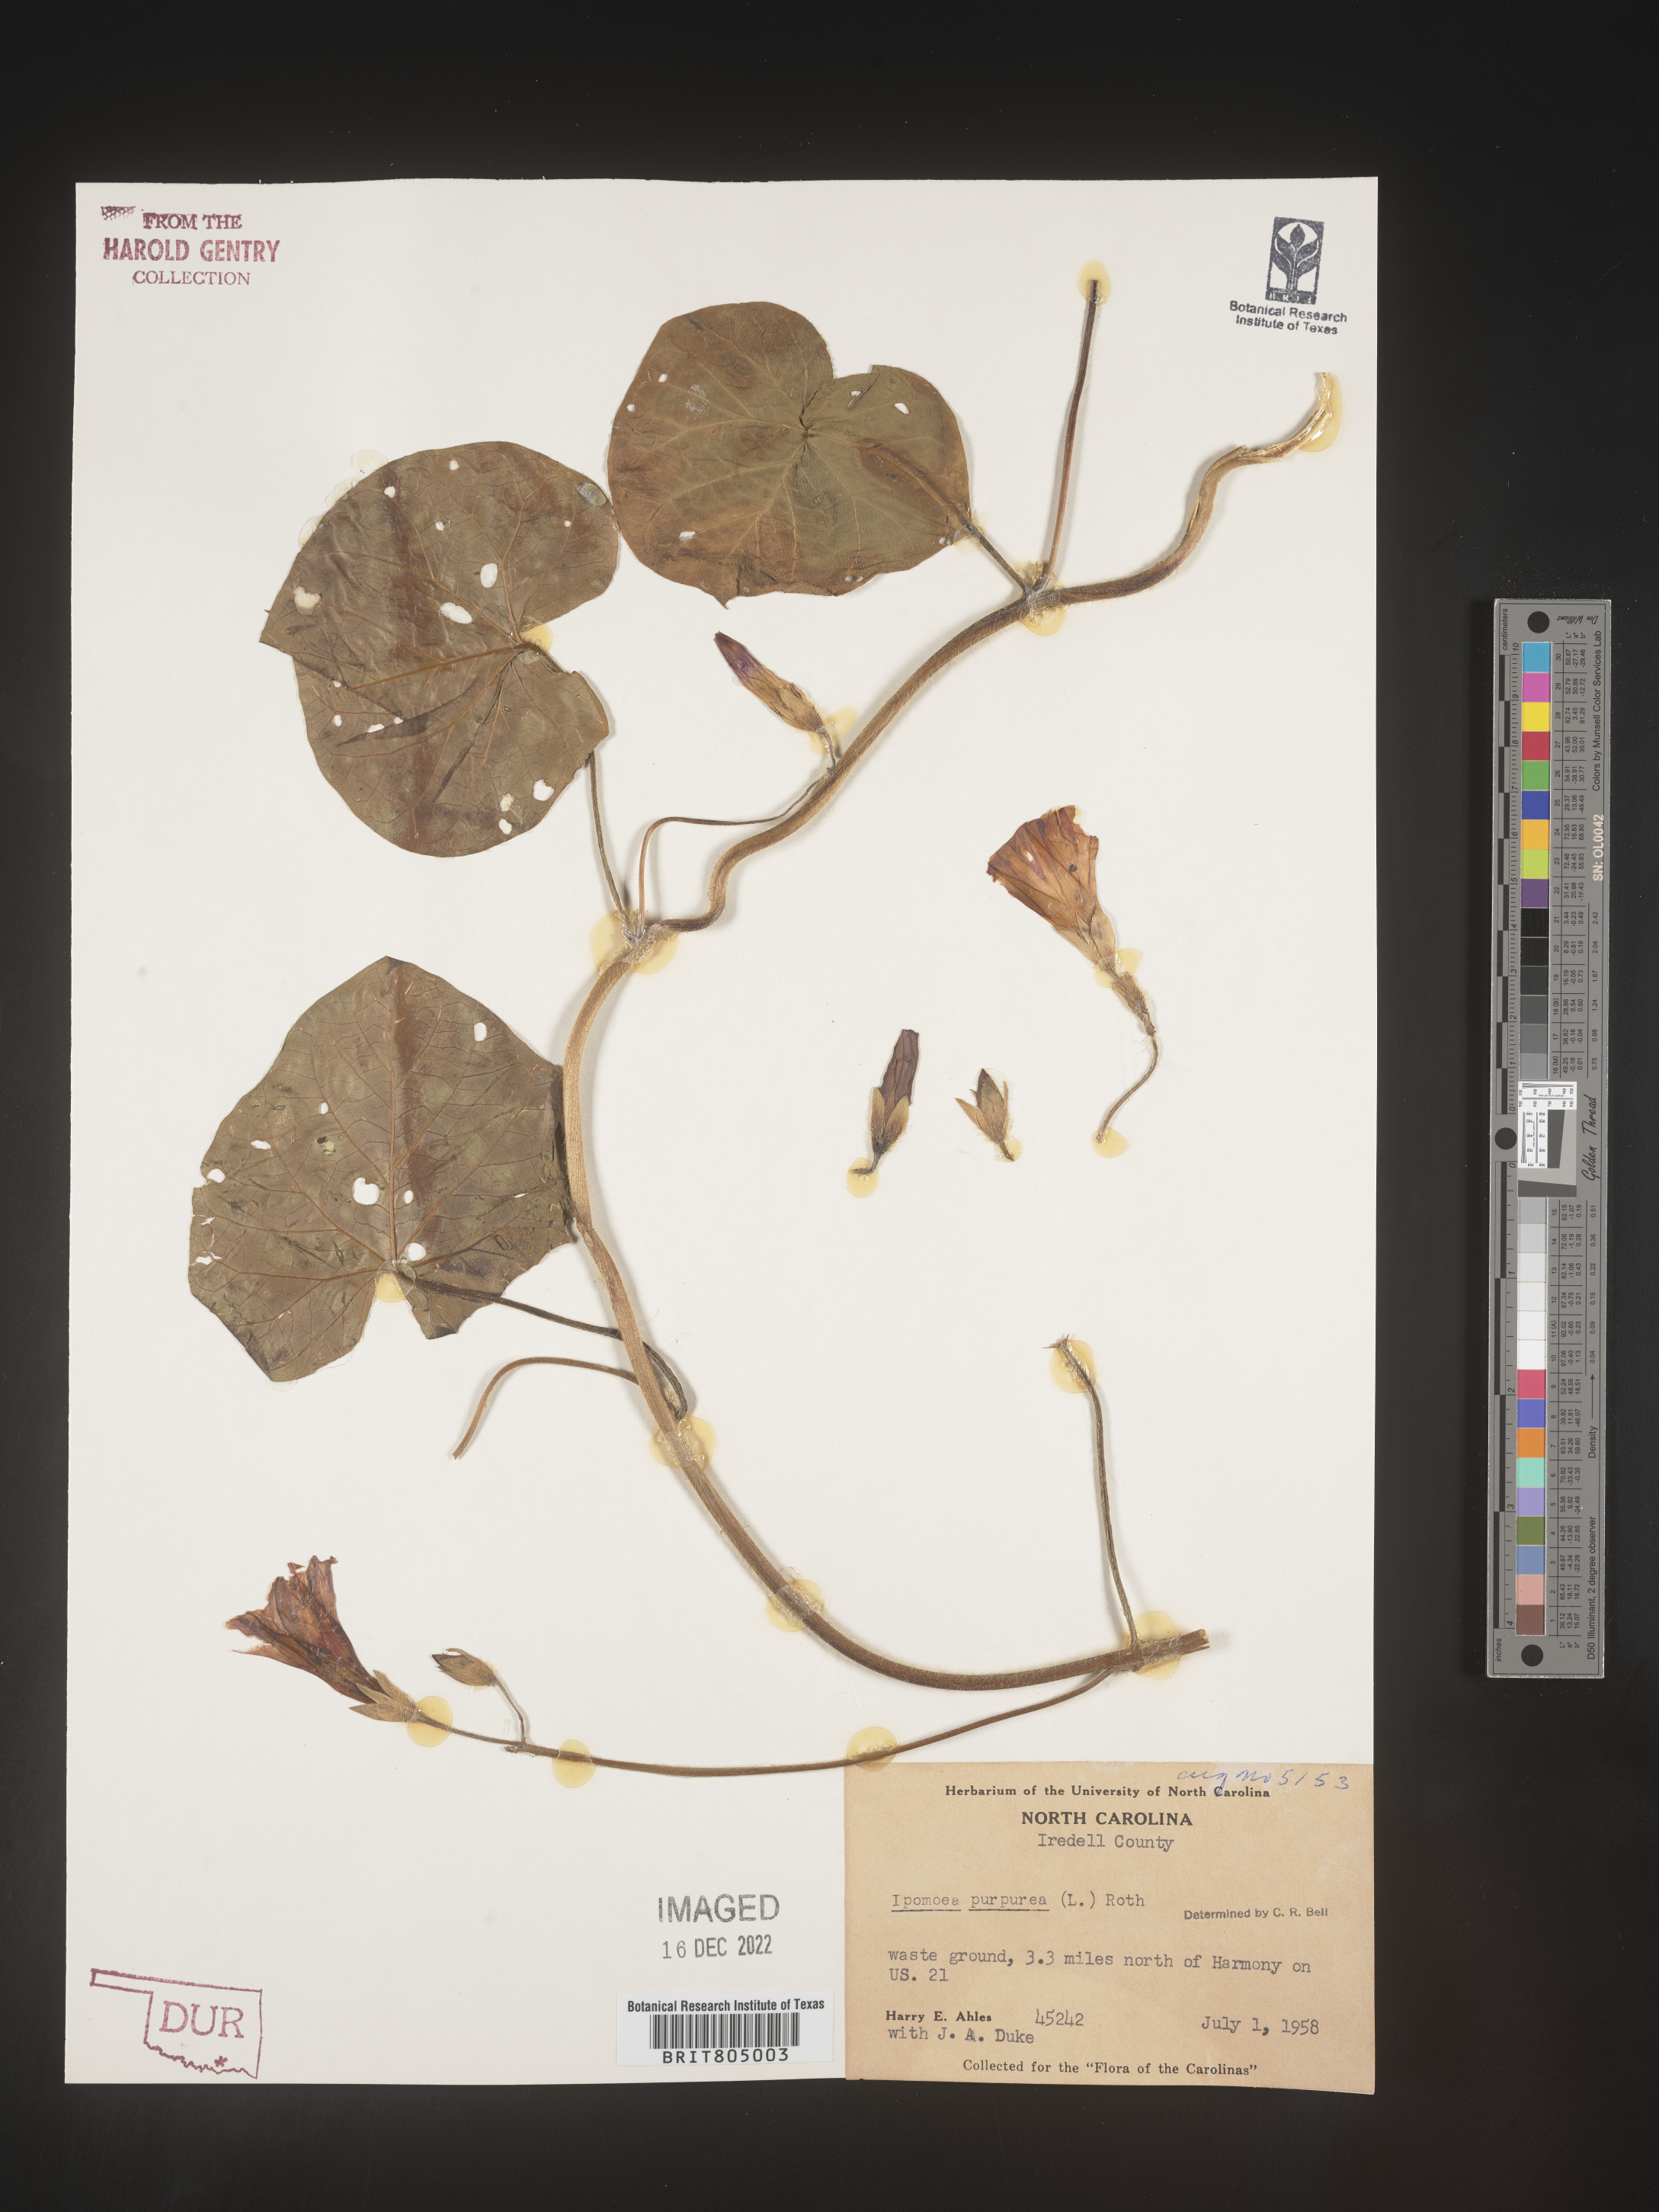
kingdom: Plantae
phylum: Tracheophyta
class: Magnoliopsida
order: Solanales
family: Convolvulaceae
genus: Ipomoea
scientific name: Ipomoea purpurea
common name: Common morning-glory
